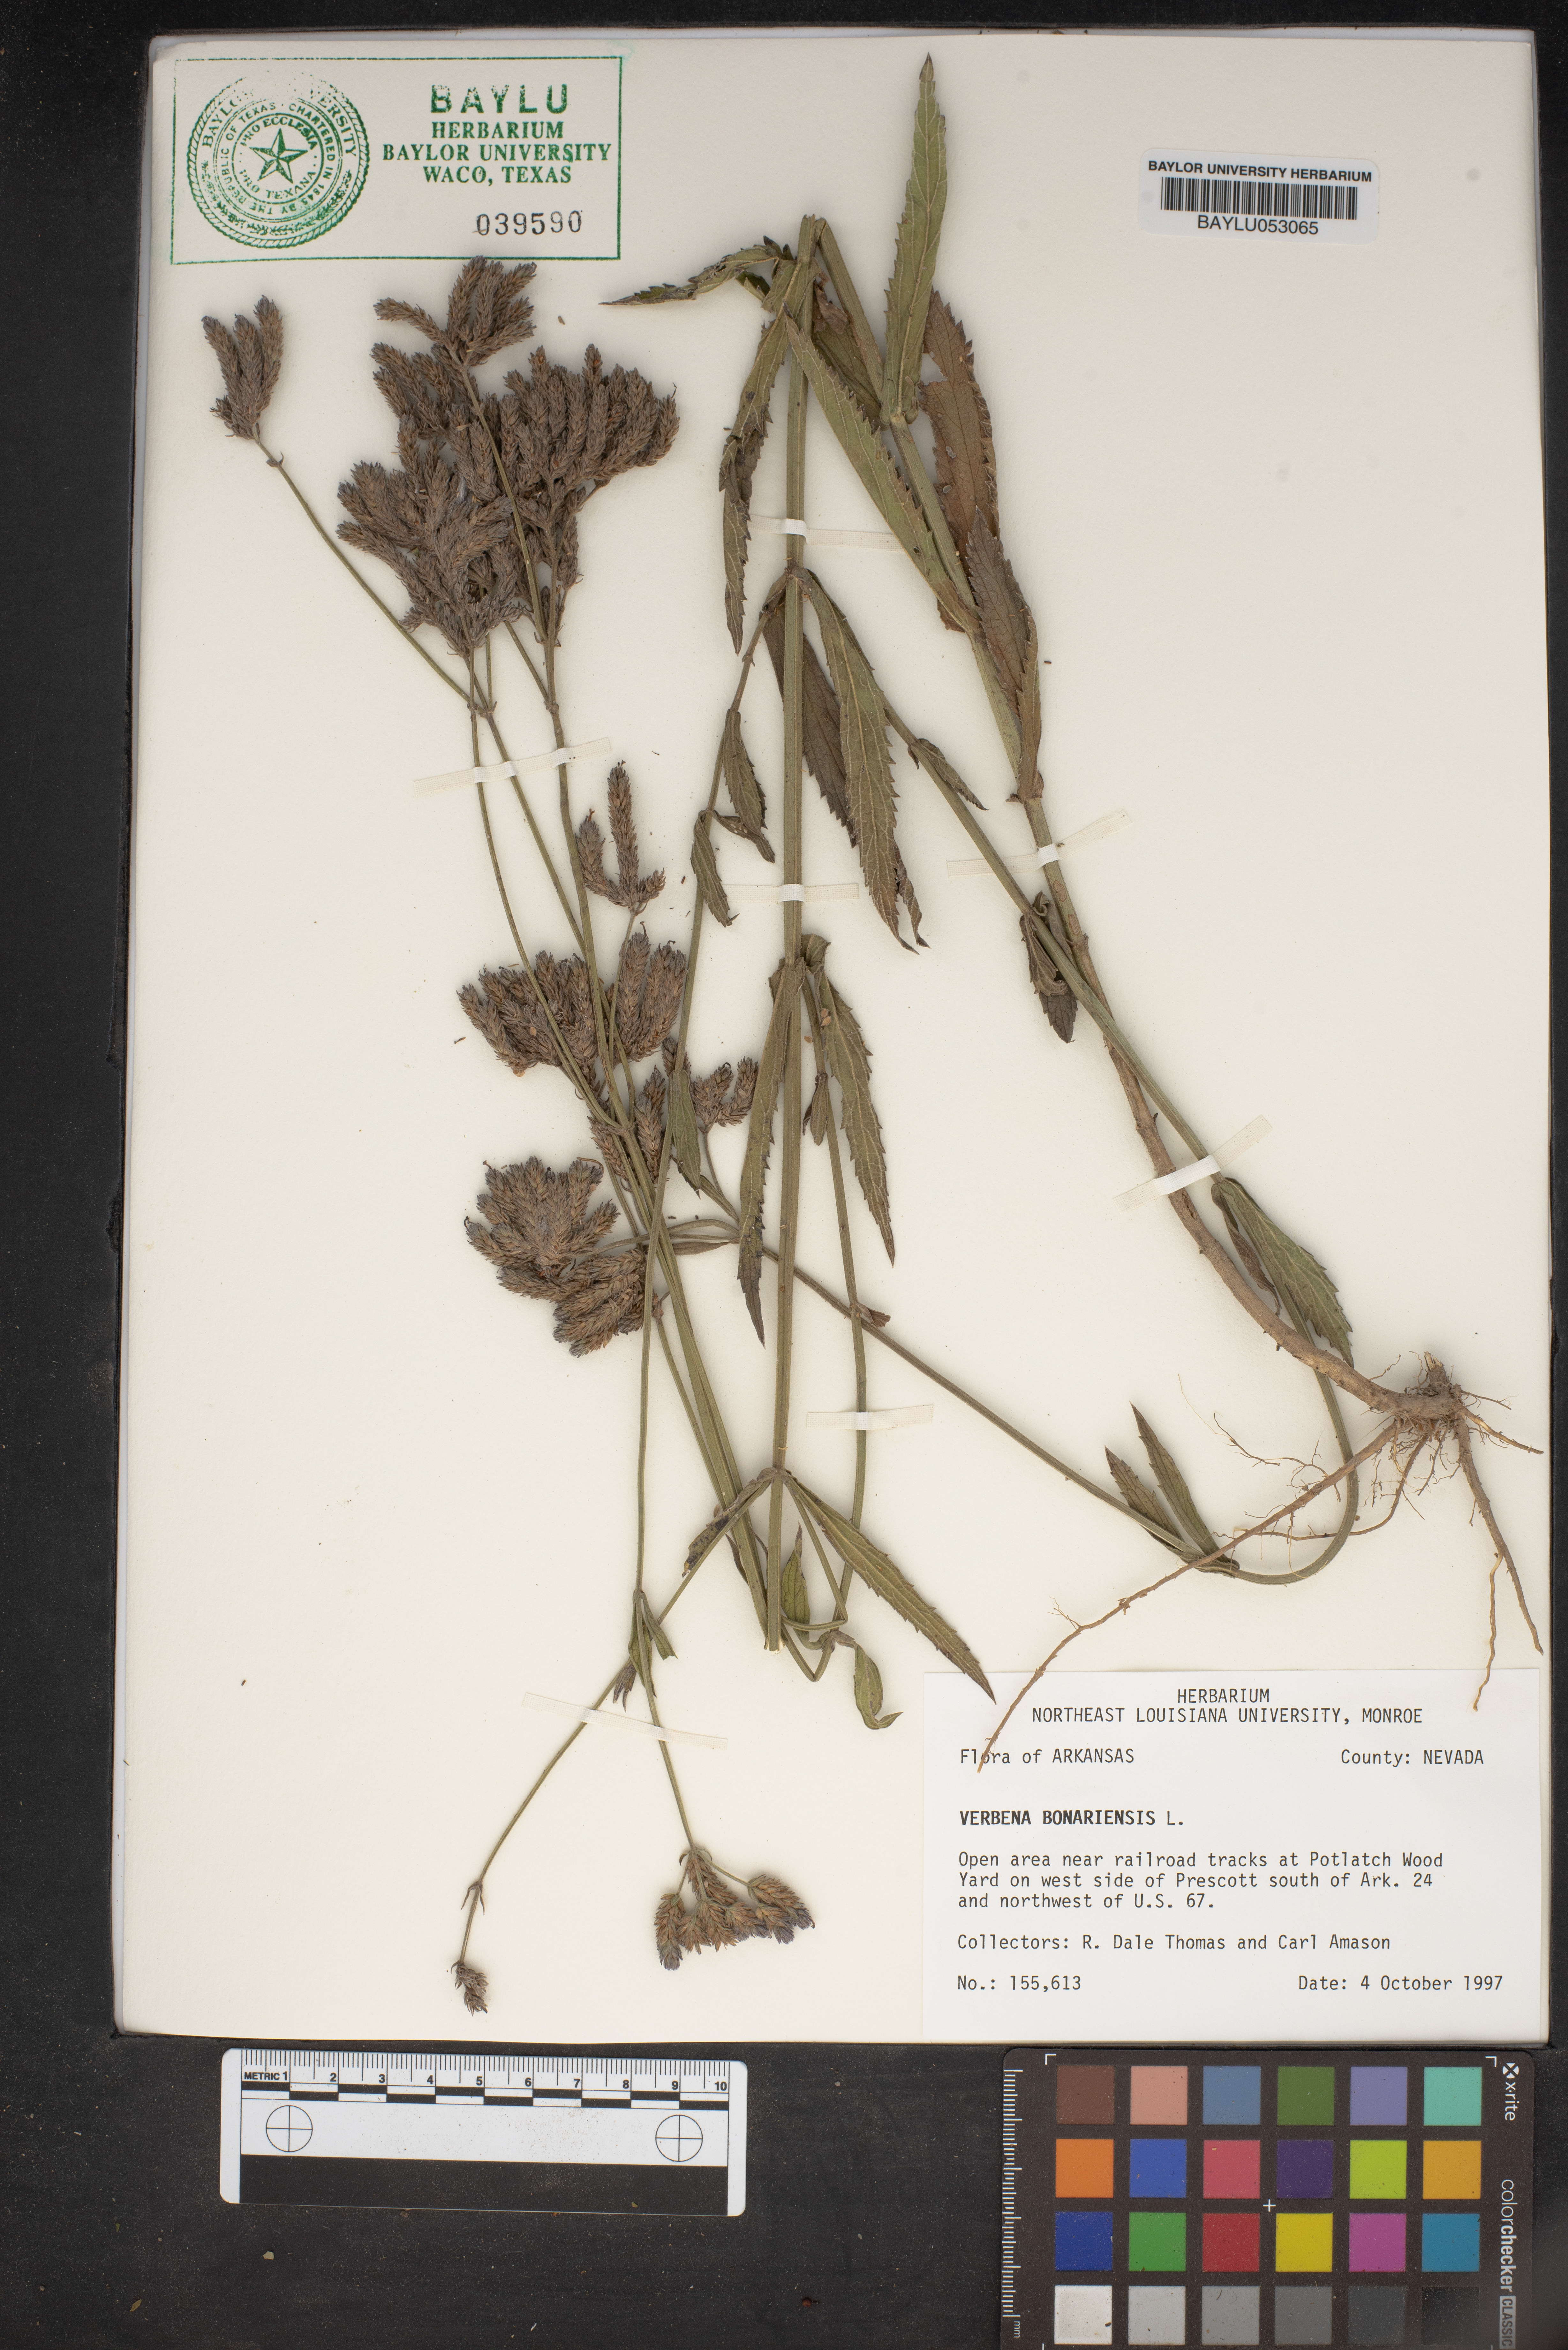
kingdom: Plantae
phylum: Tracheophyta
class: Magnoliopsida
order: Lamiales
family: Verbenaceae
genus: Verbena
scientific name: Verbena bonariensis
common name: Purpletop vervain
